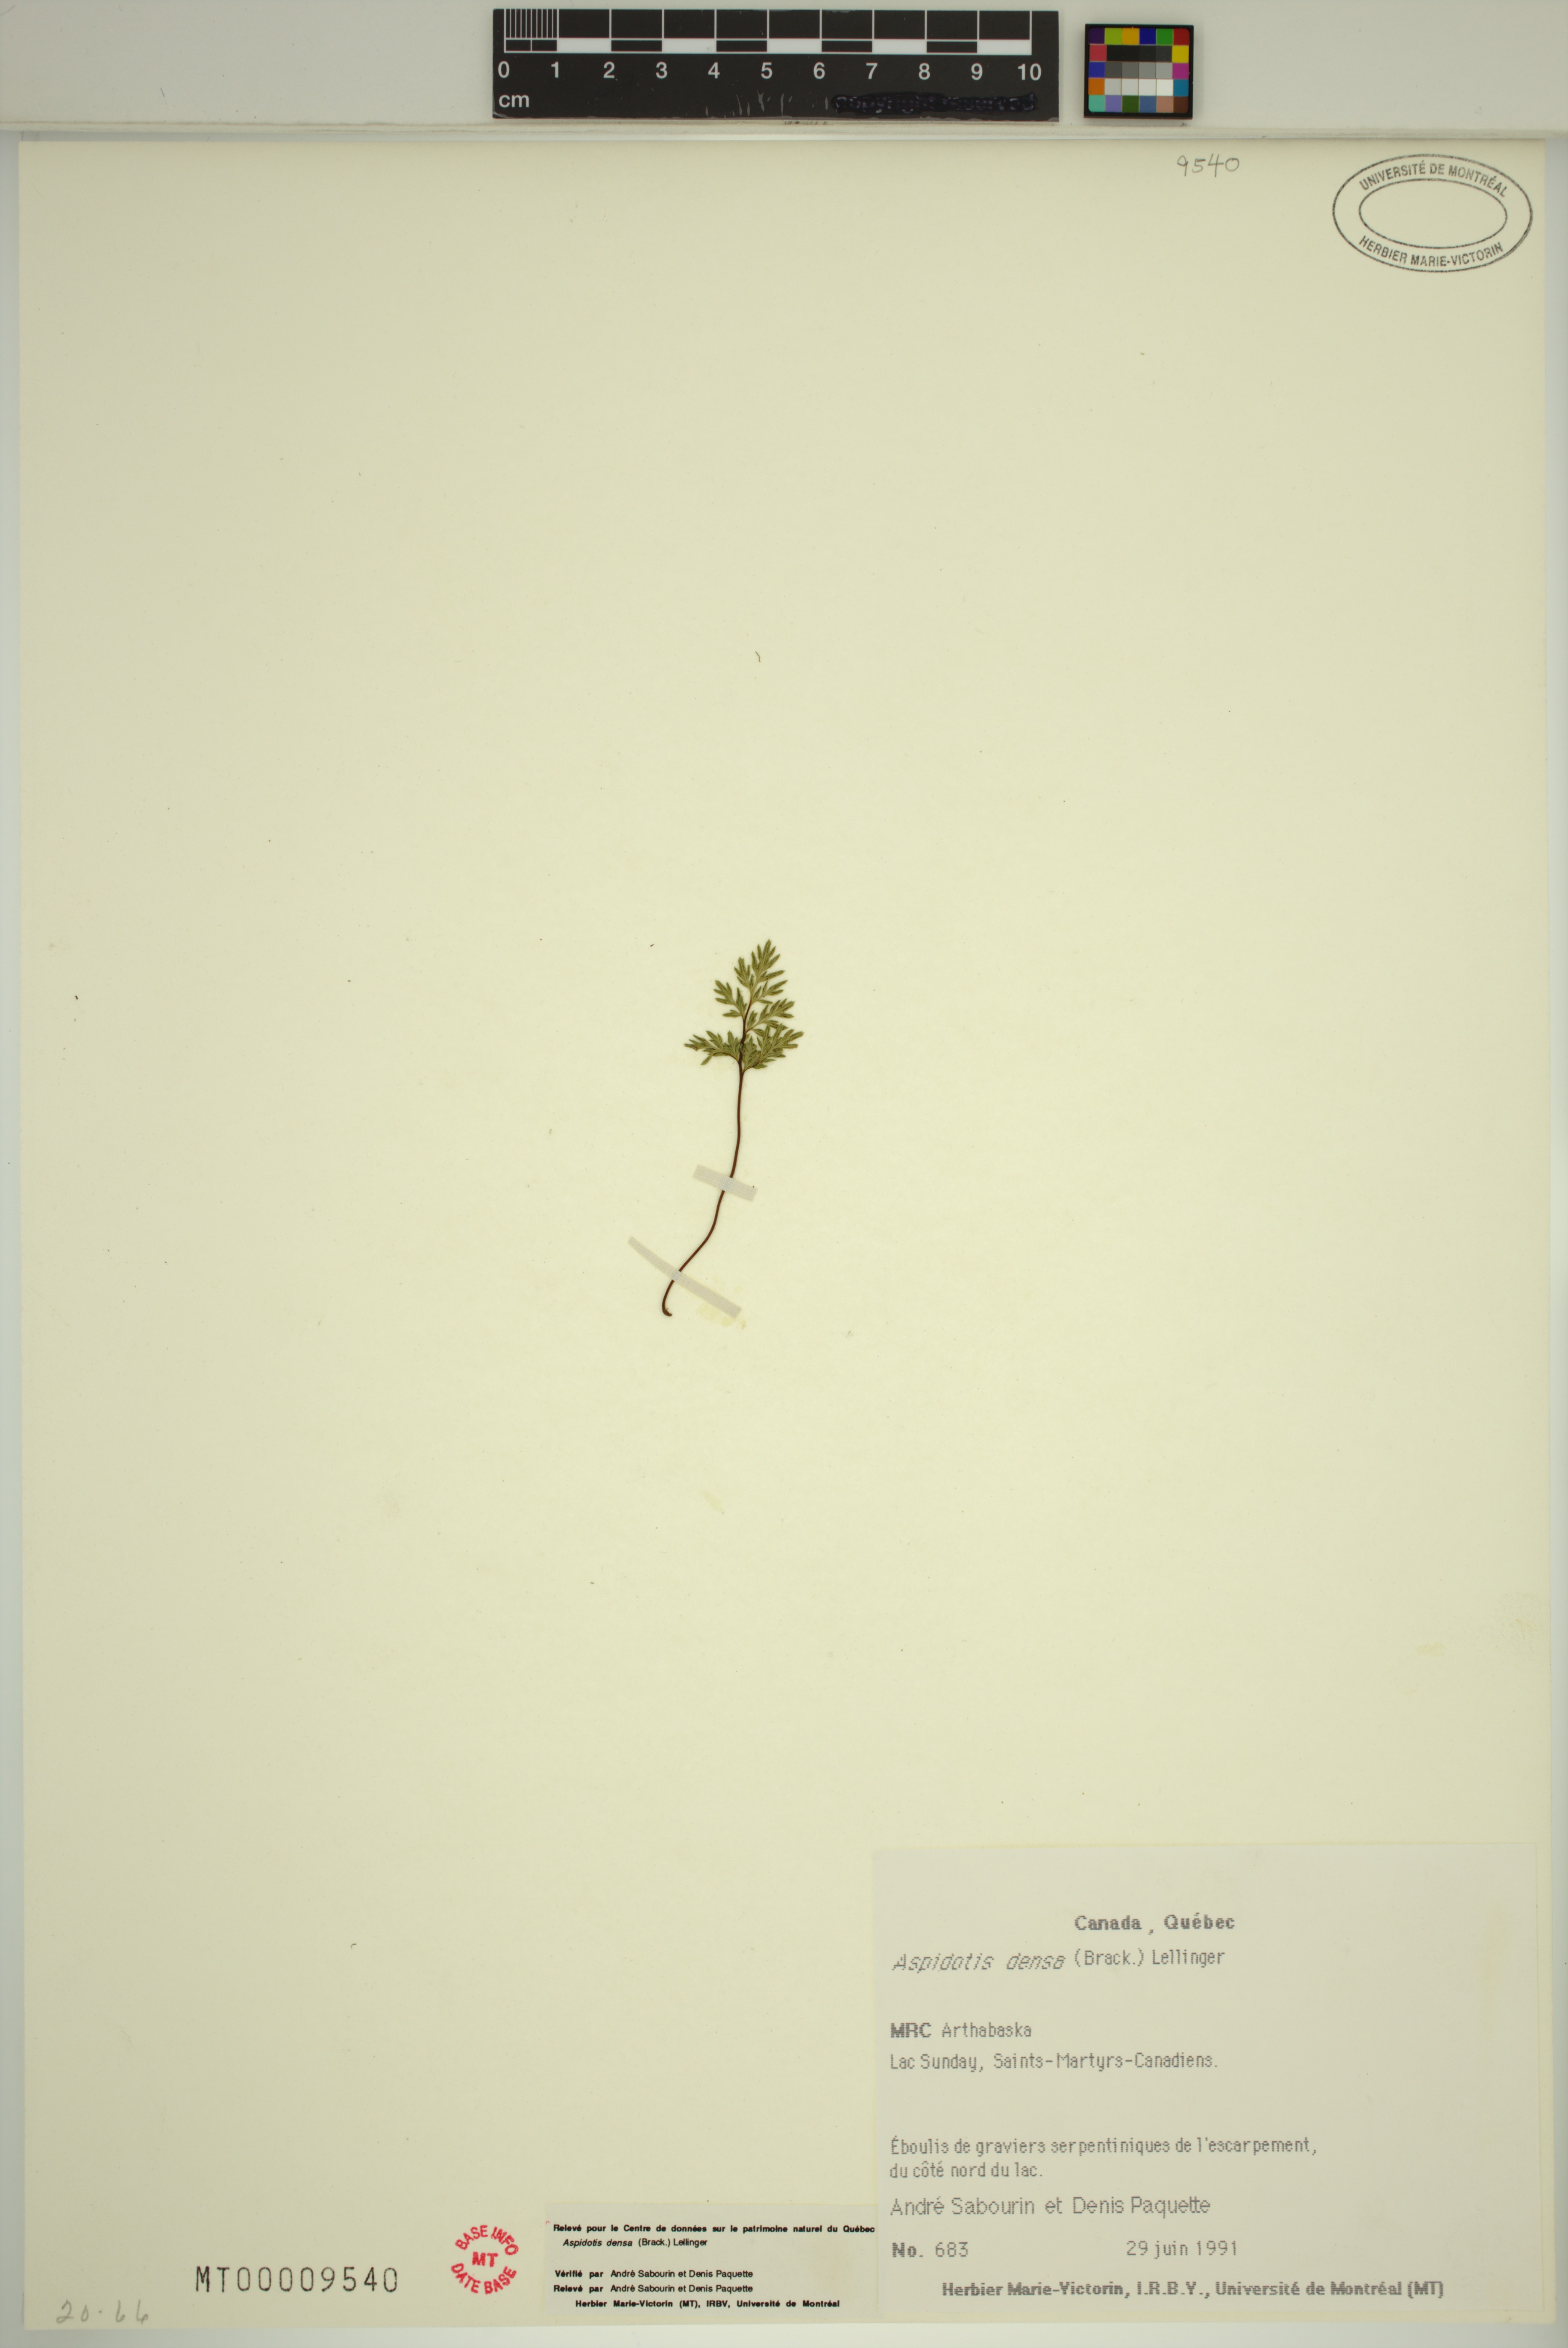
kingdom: Plantae
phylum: Tracheophyta
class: Polypodiopsida
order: Polypodiales
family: Pteridaceae
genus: Aspidotis
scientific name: Aspidotis densa
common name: Indian's dream
